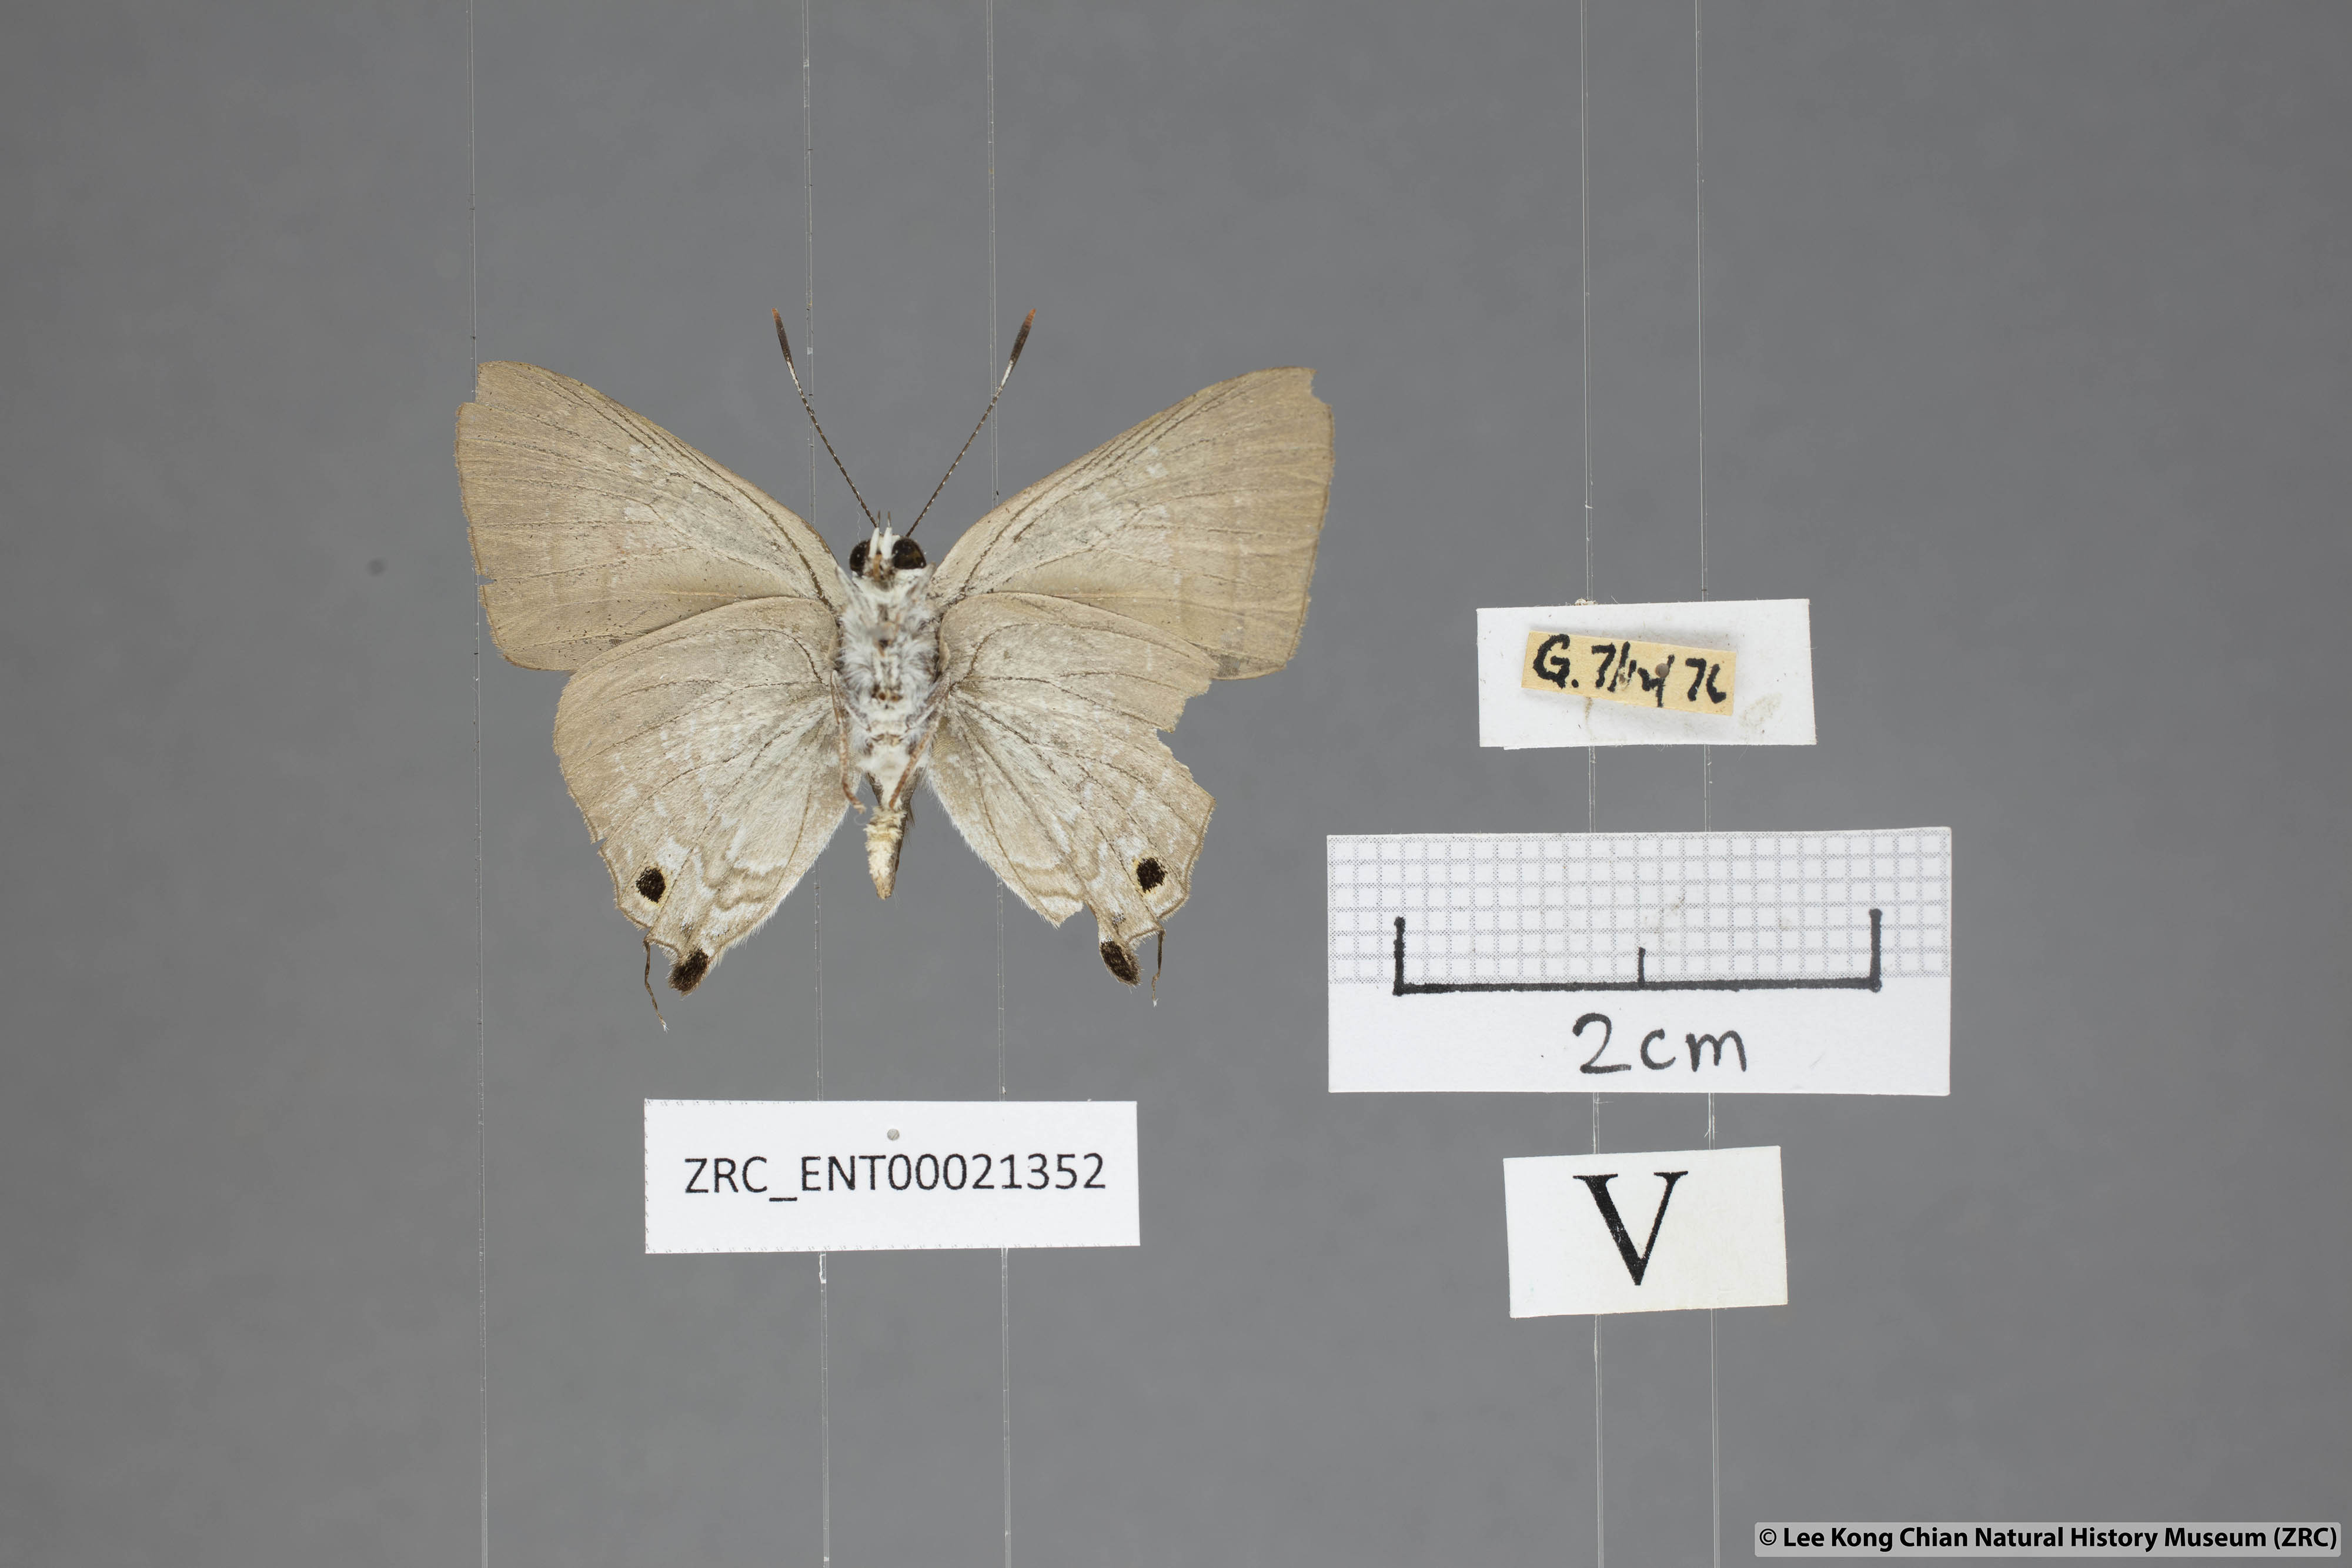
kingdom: Animalia
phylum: Arthropoda
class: Insecta
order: Lepidoptera
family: Lycaenidae
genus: Deudorix
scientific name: Deudorix staudingeri
